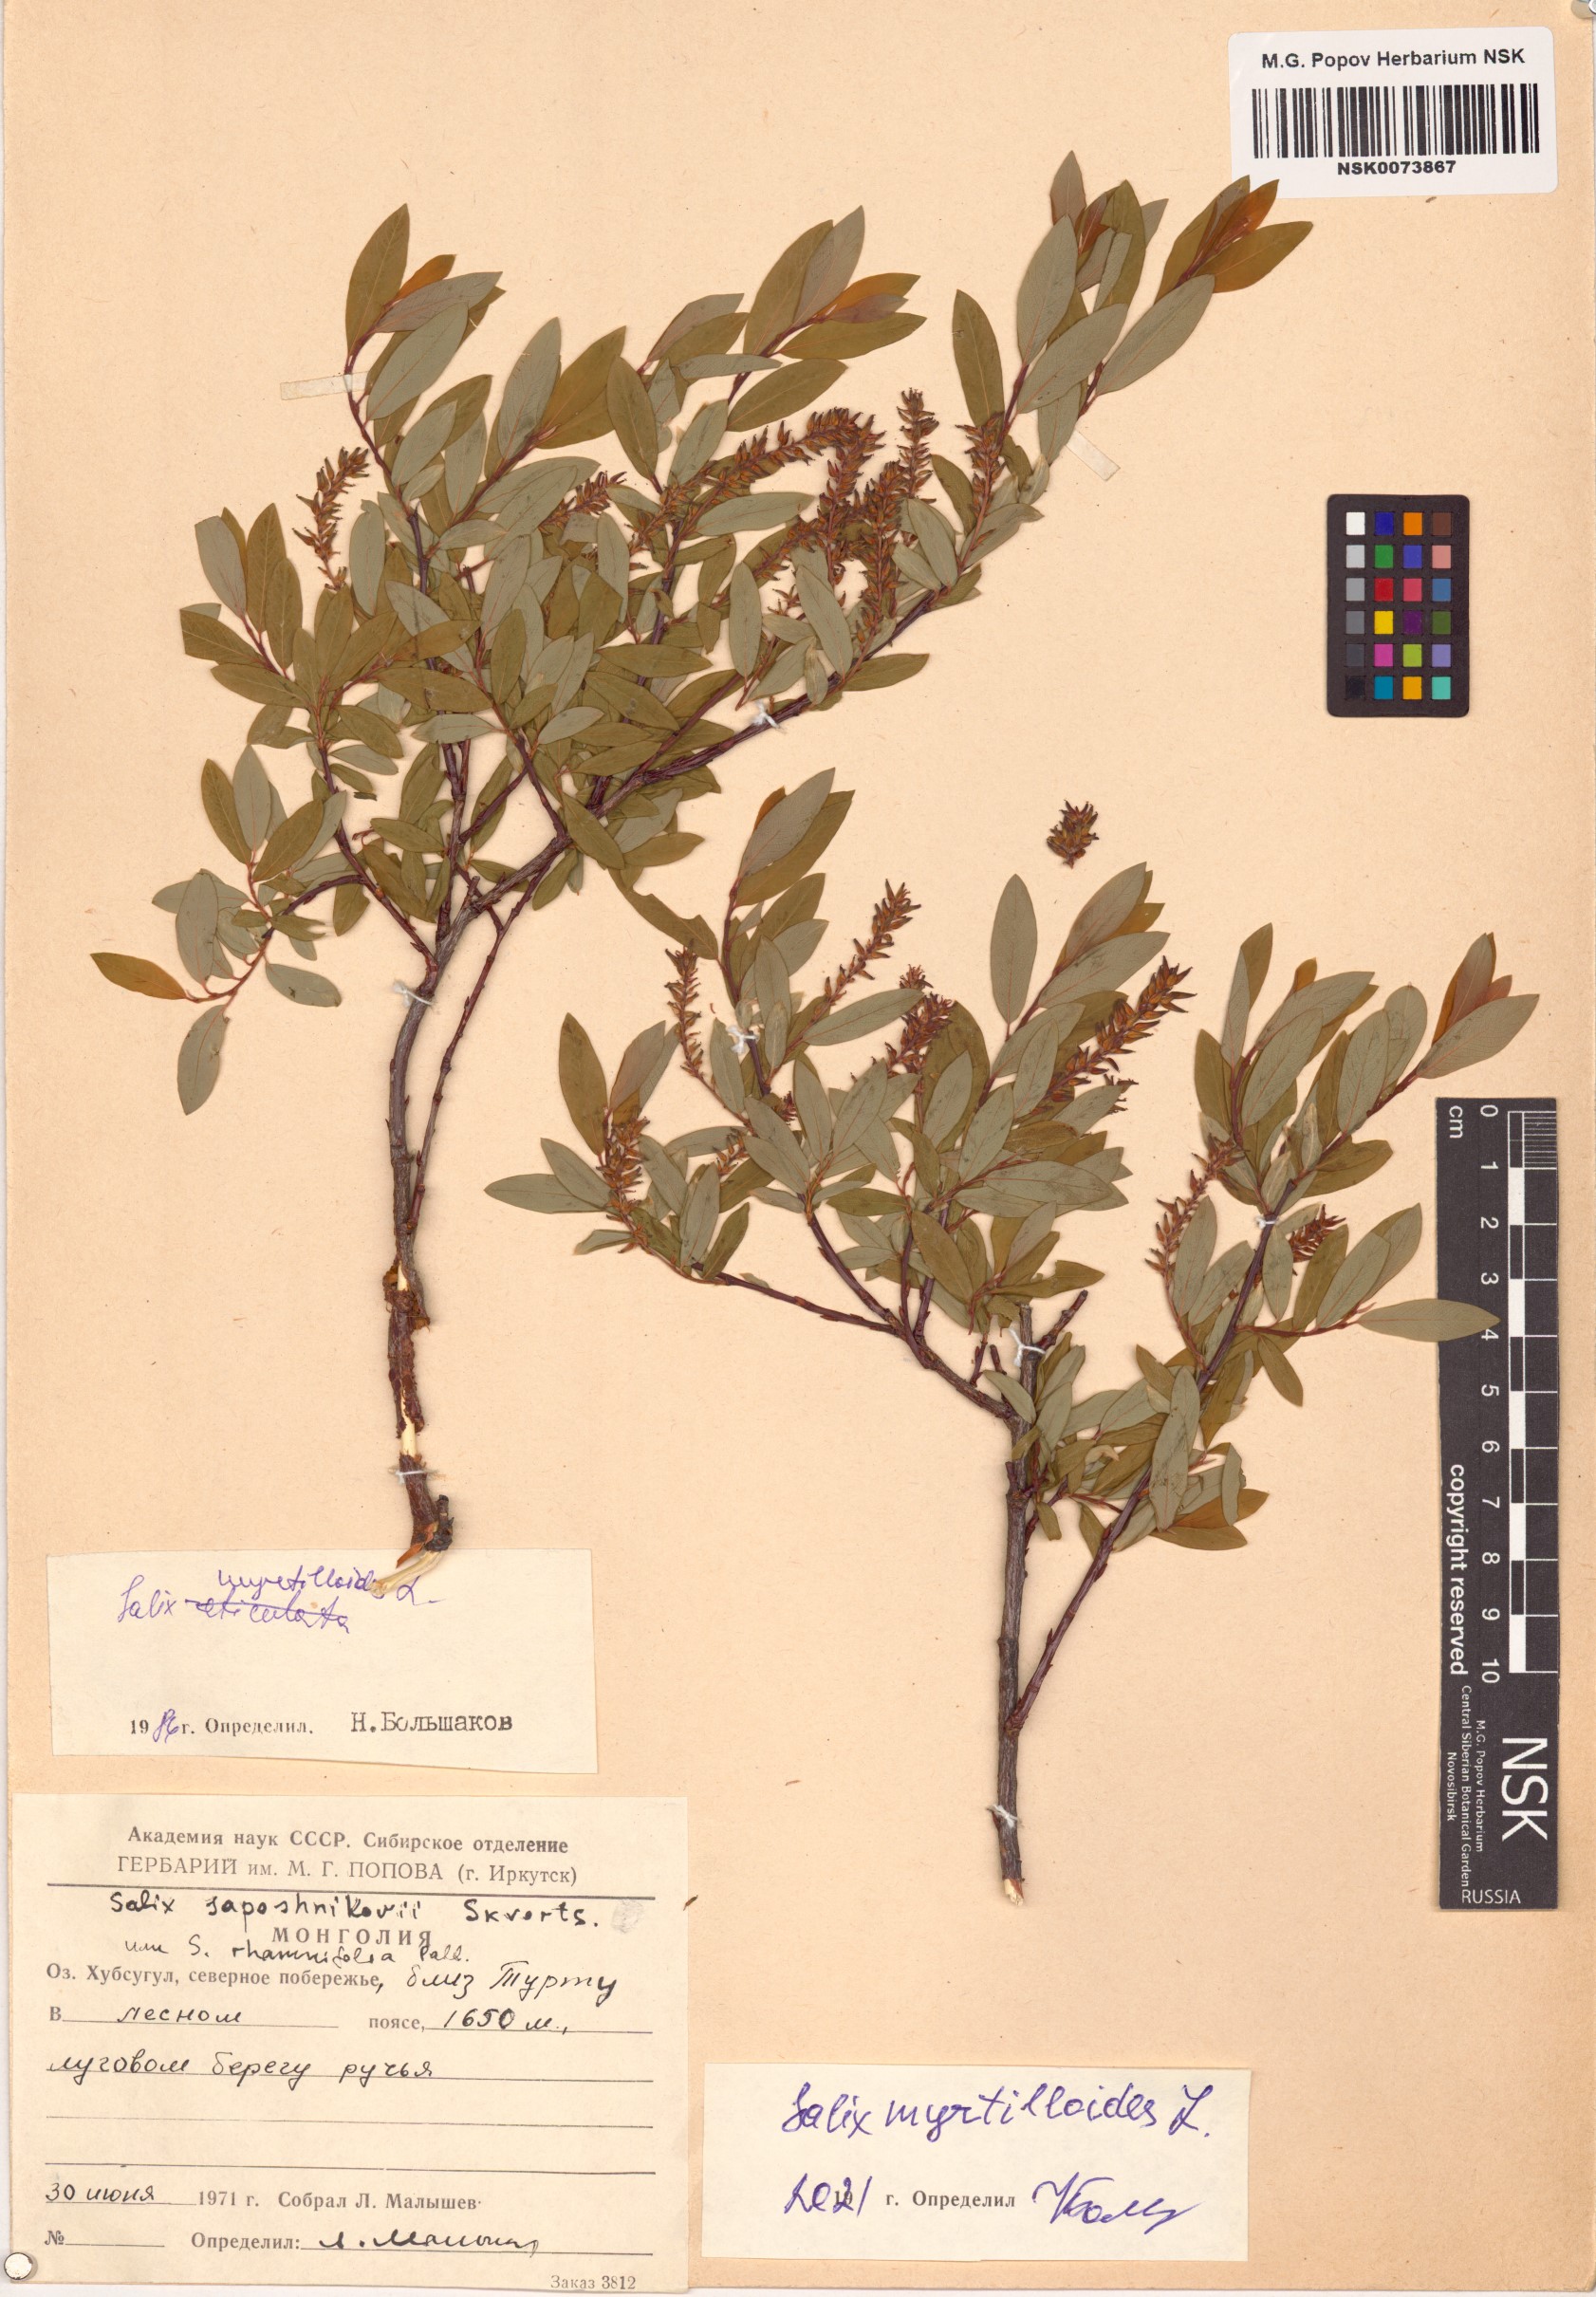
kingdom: Plantae
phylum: Tracheophyta
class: Magnoliopsida
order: Malpighiales
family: Salicaceae
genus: Salix
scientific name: Salix myrtilloides
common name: Myrtle-leaved willow
